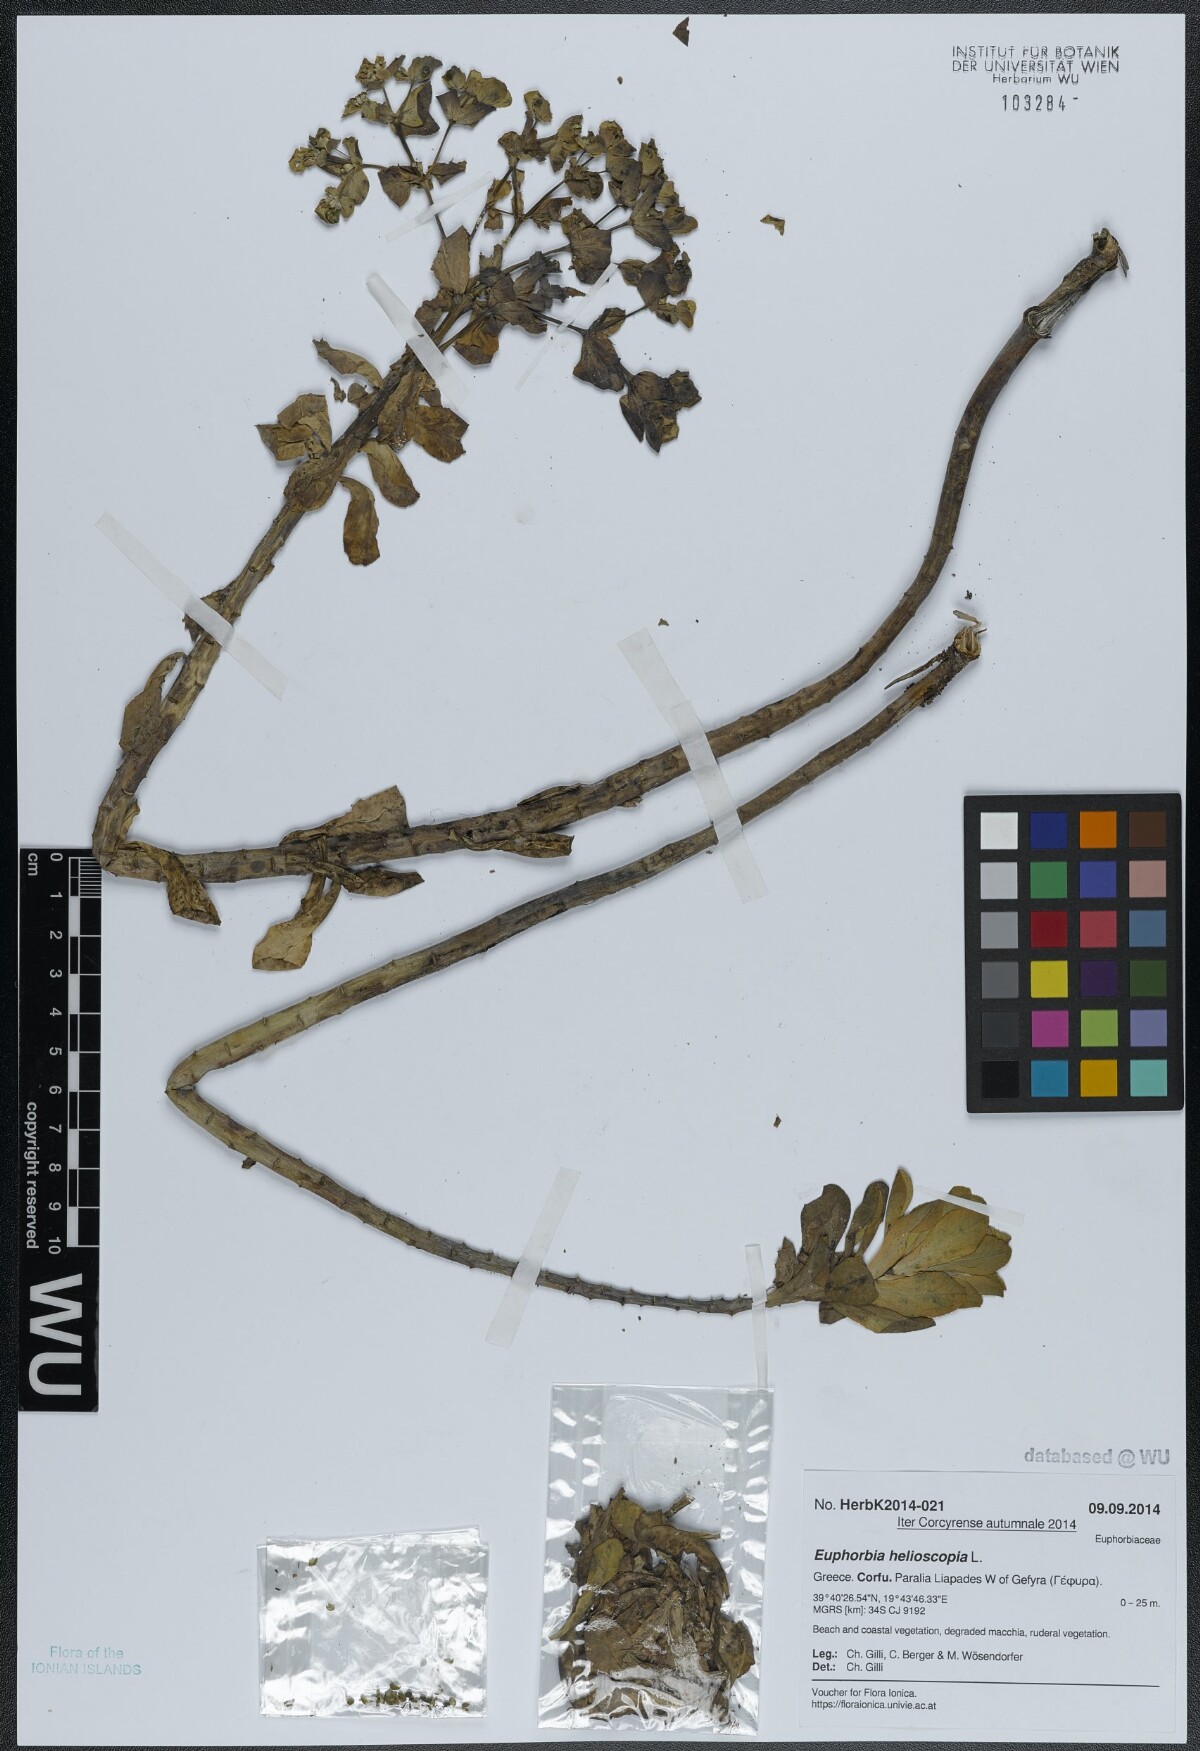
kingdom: Plantae
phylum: Tracheophyta
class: Magnoliopsida
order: Malpighiales
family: Euphorbiaceae
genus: Euphorbia
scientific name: Euphorbia helioscopia
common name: Sun spurge
